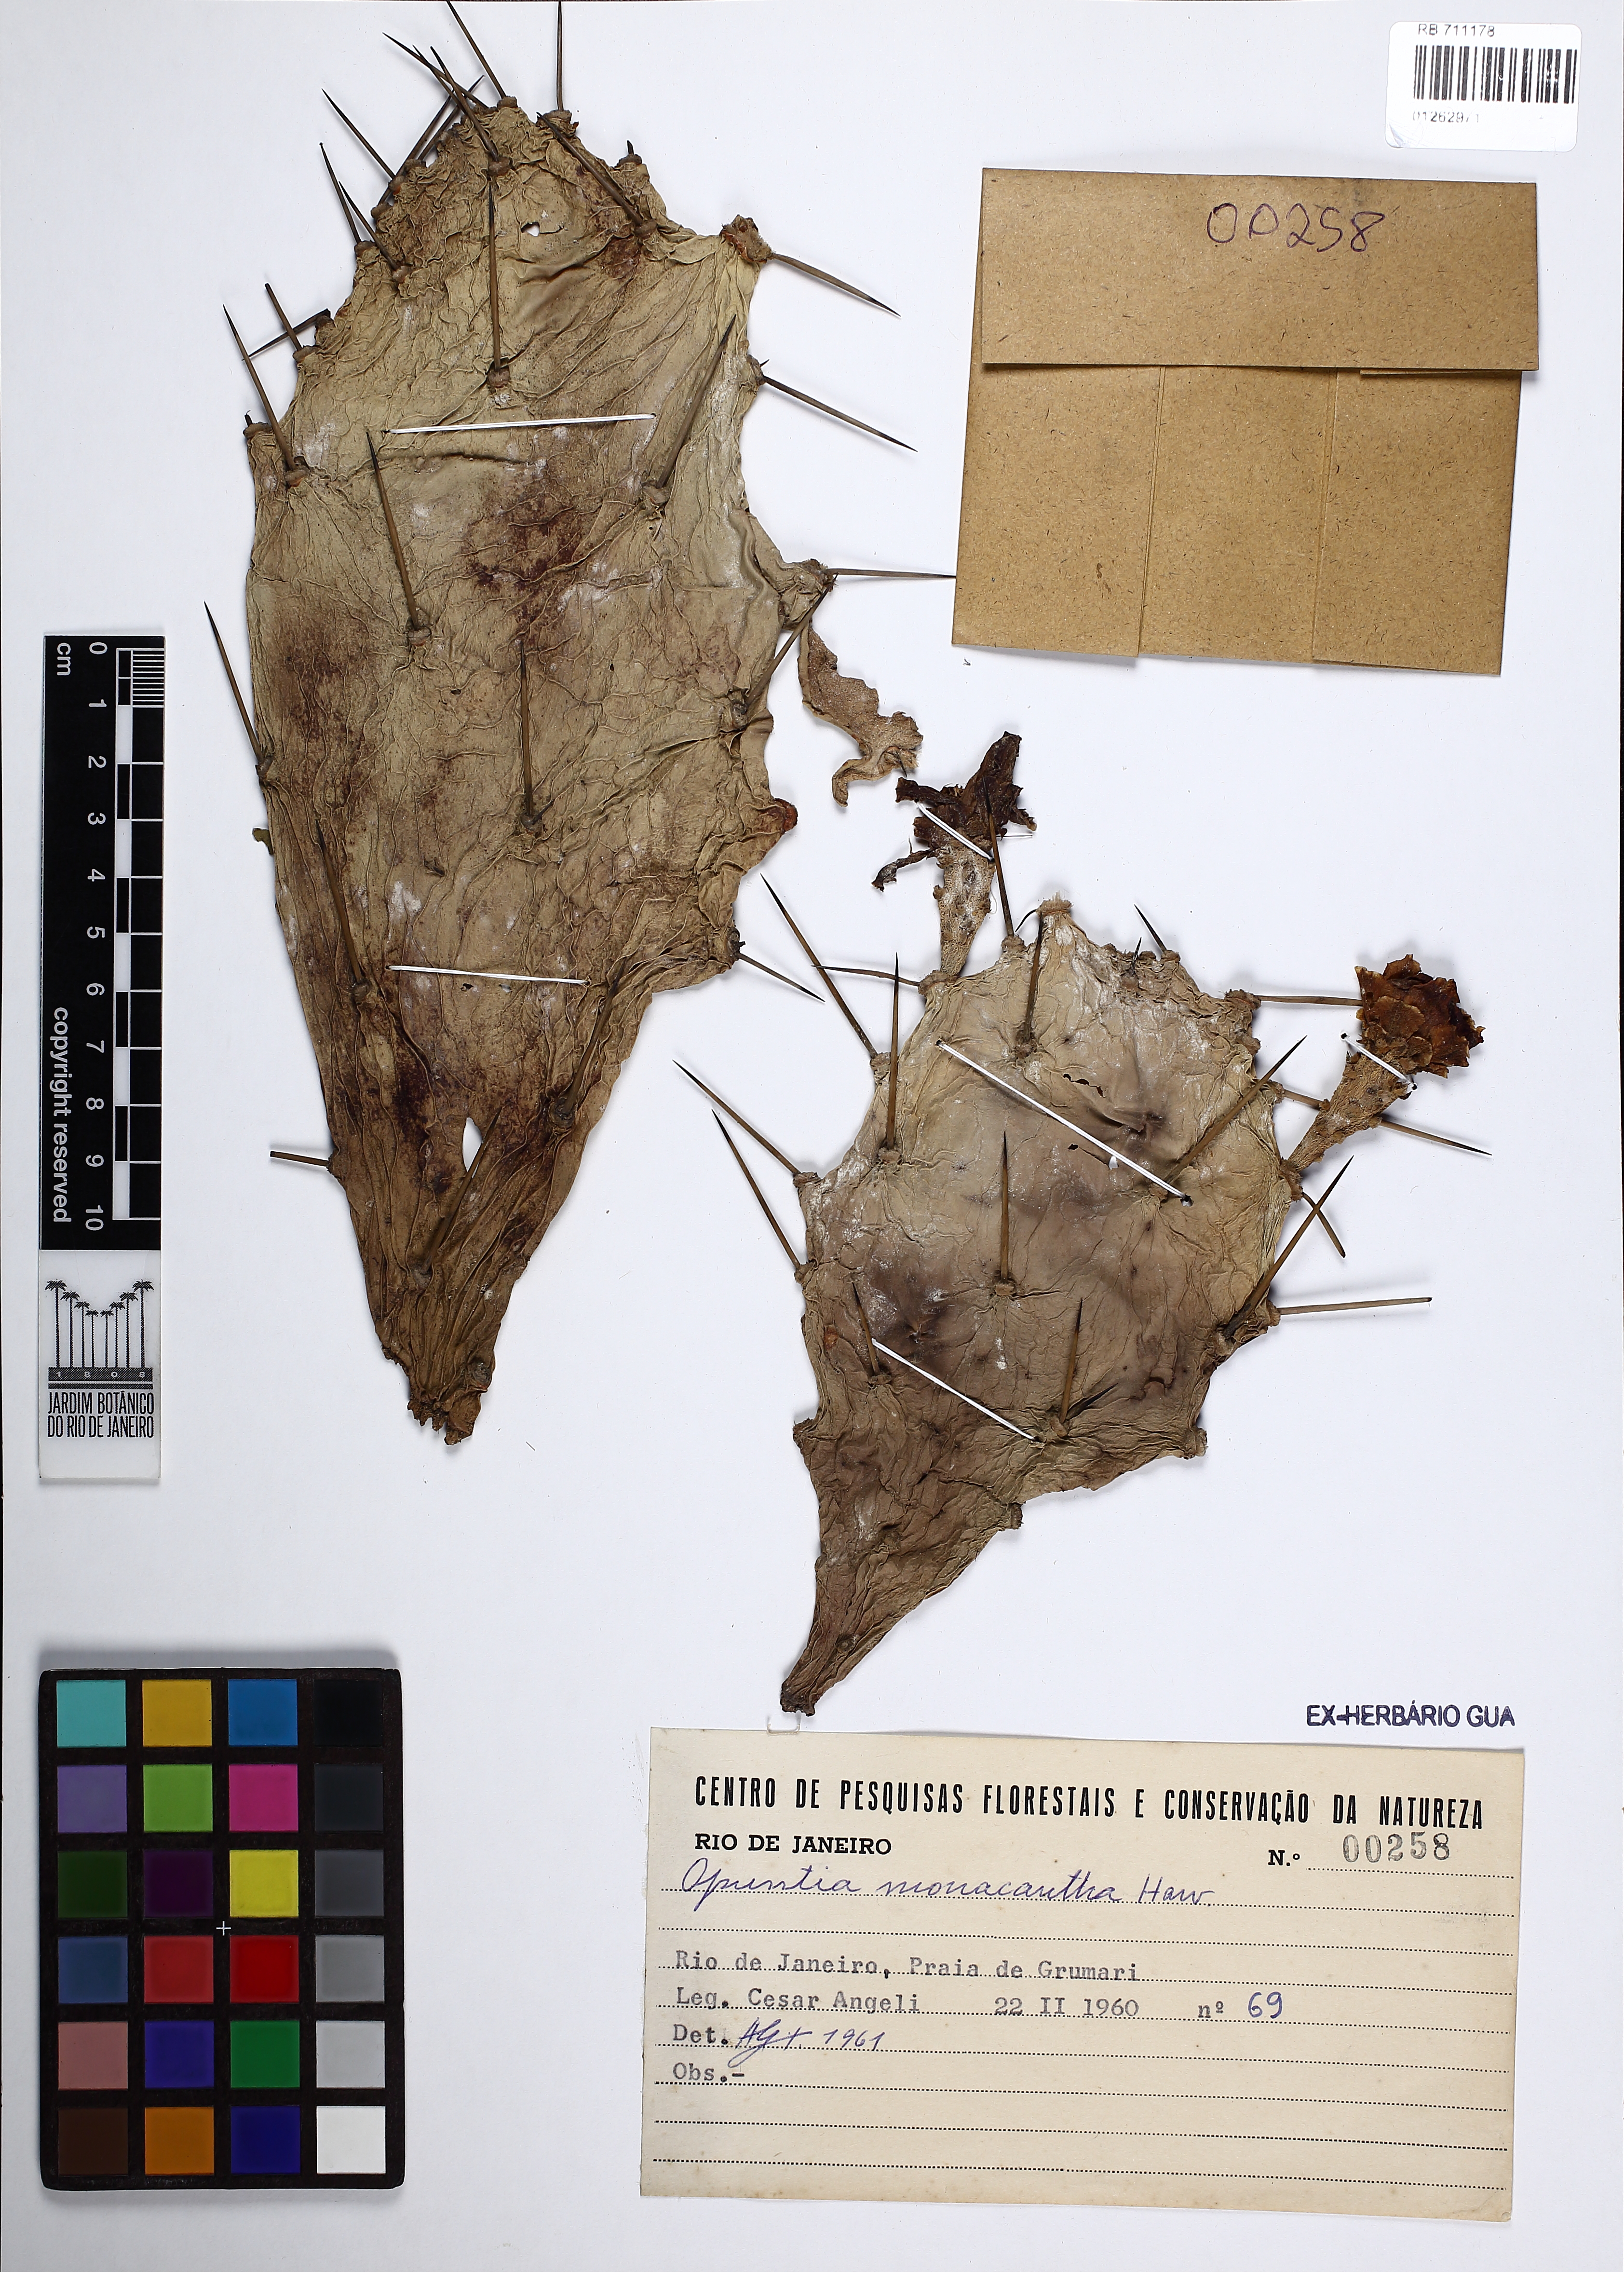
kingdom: Plantae
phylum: Tracheophyta
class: Magnoliopsida
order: Caryophyllales
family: Cactaceae
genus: Opuntia
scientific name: Opuntia monacantha
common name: Common pricklypear
